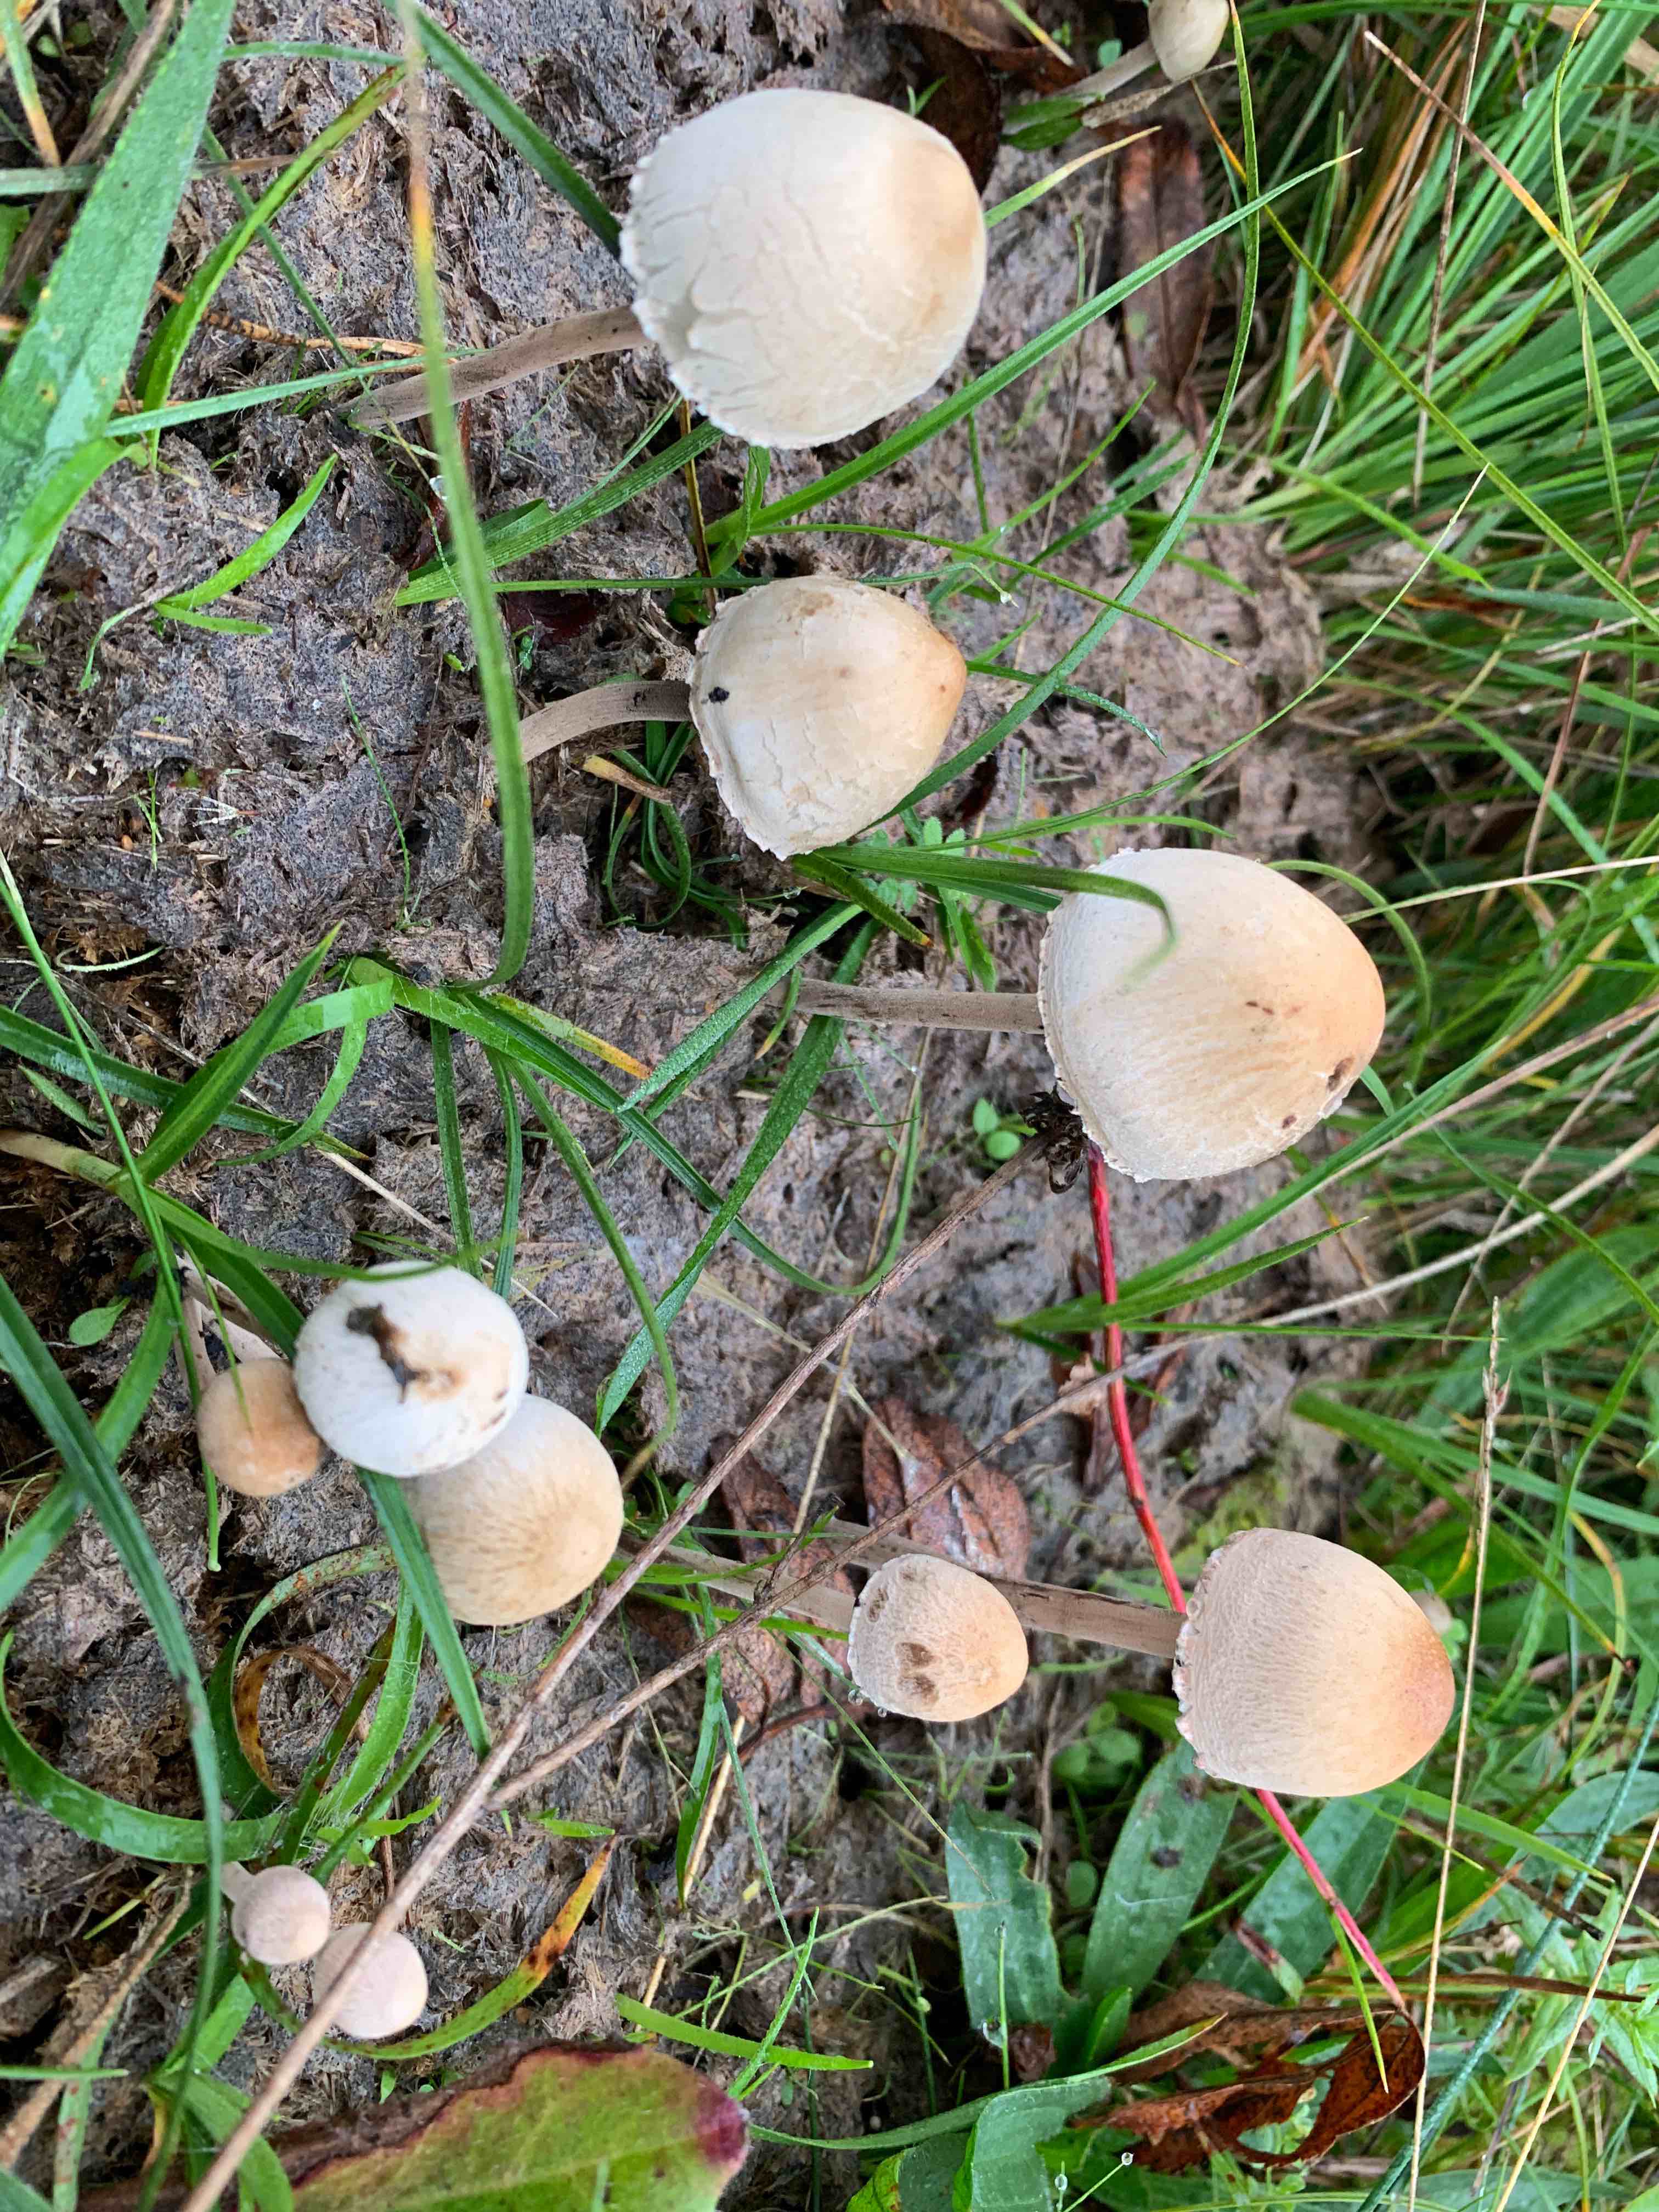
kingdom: Fungi
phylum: Basidiomycota
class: Agaricomycetes
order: Agaricales
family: Bolbitiaceae
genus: Panaeolus
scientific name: Panaeolus papilionaceus
